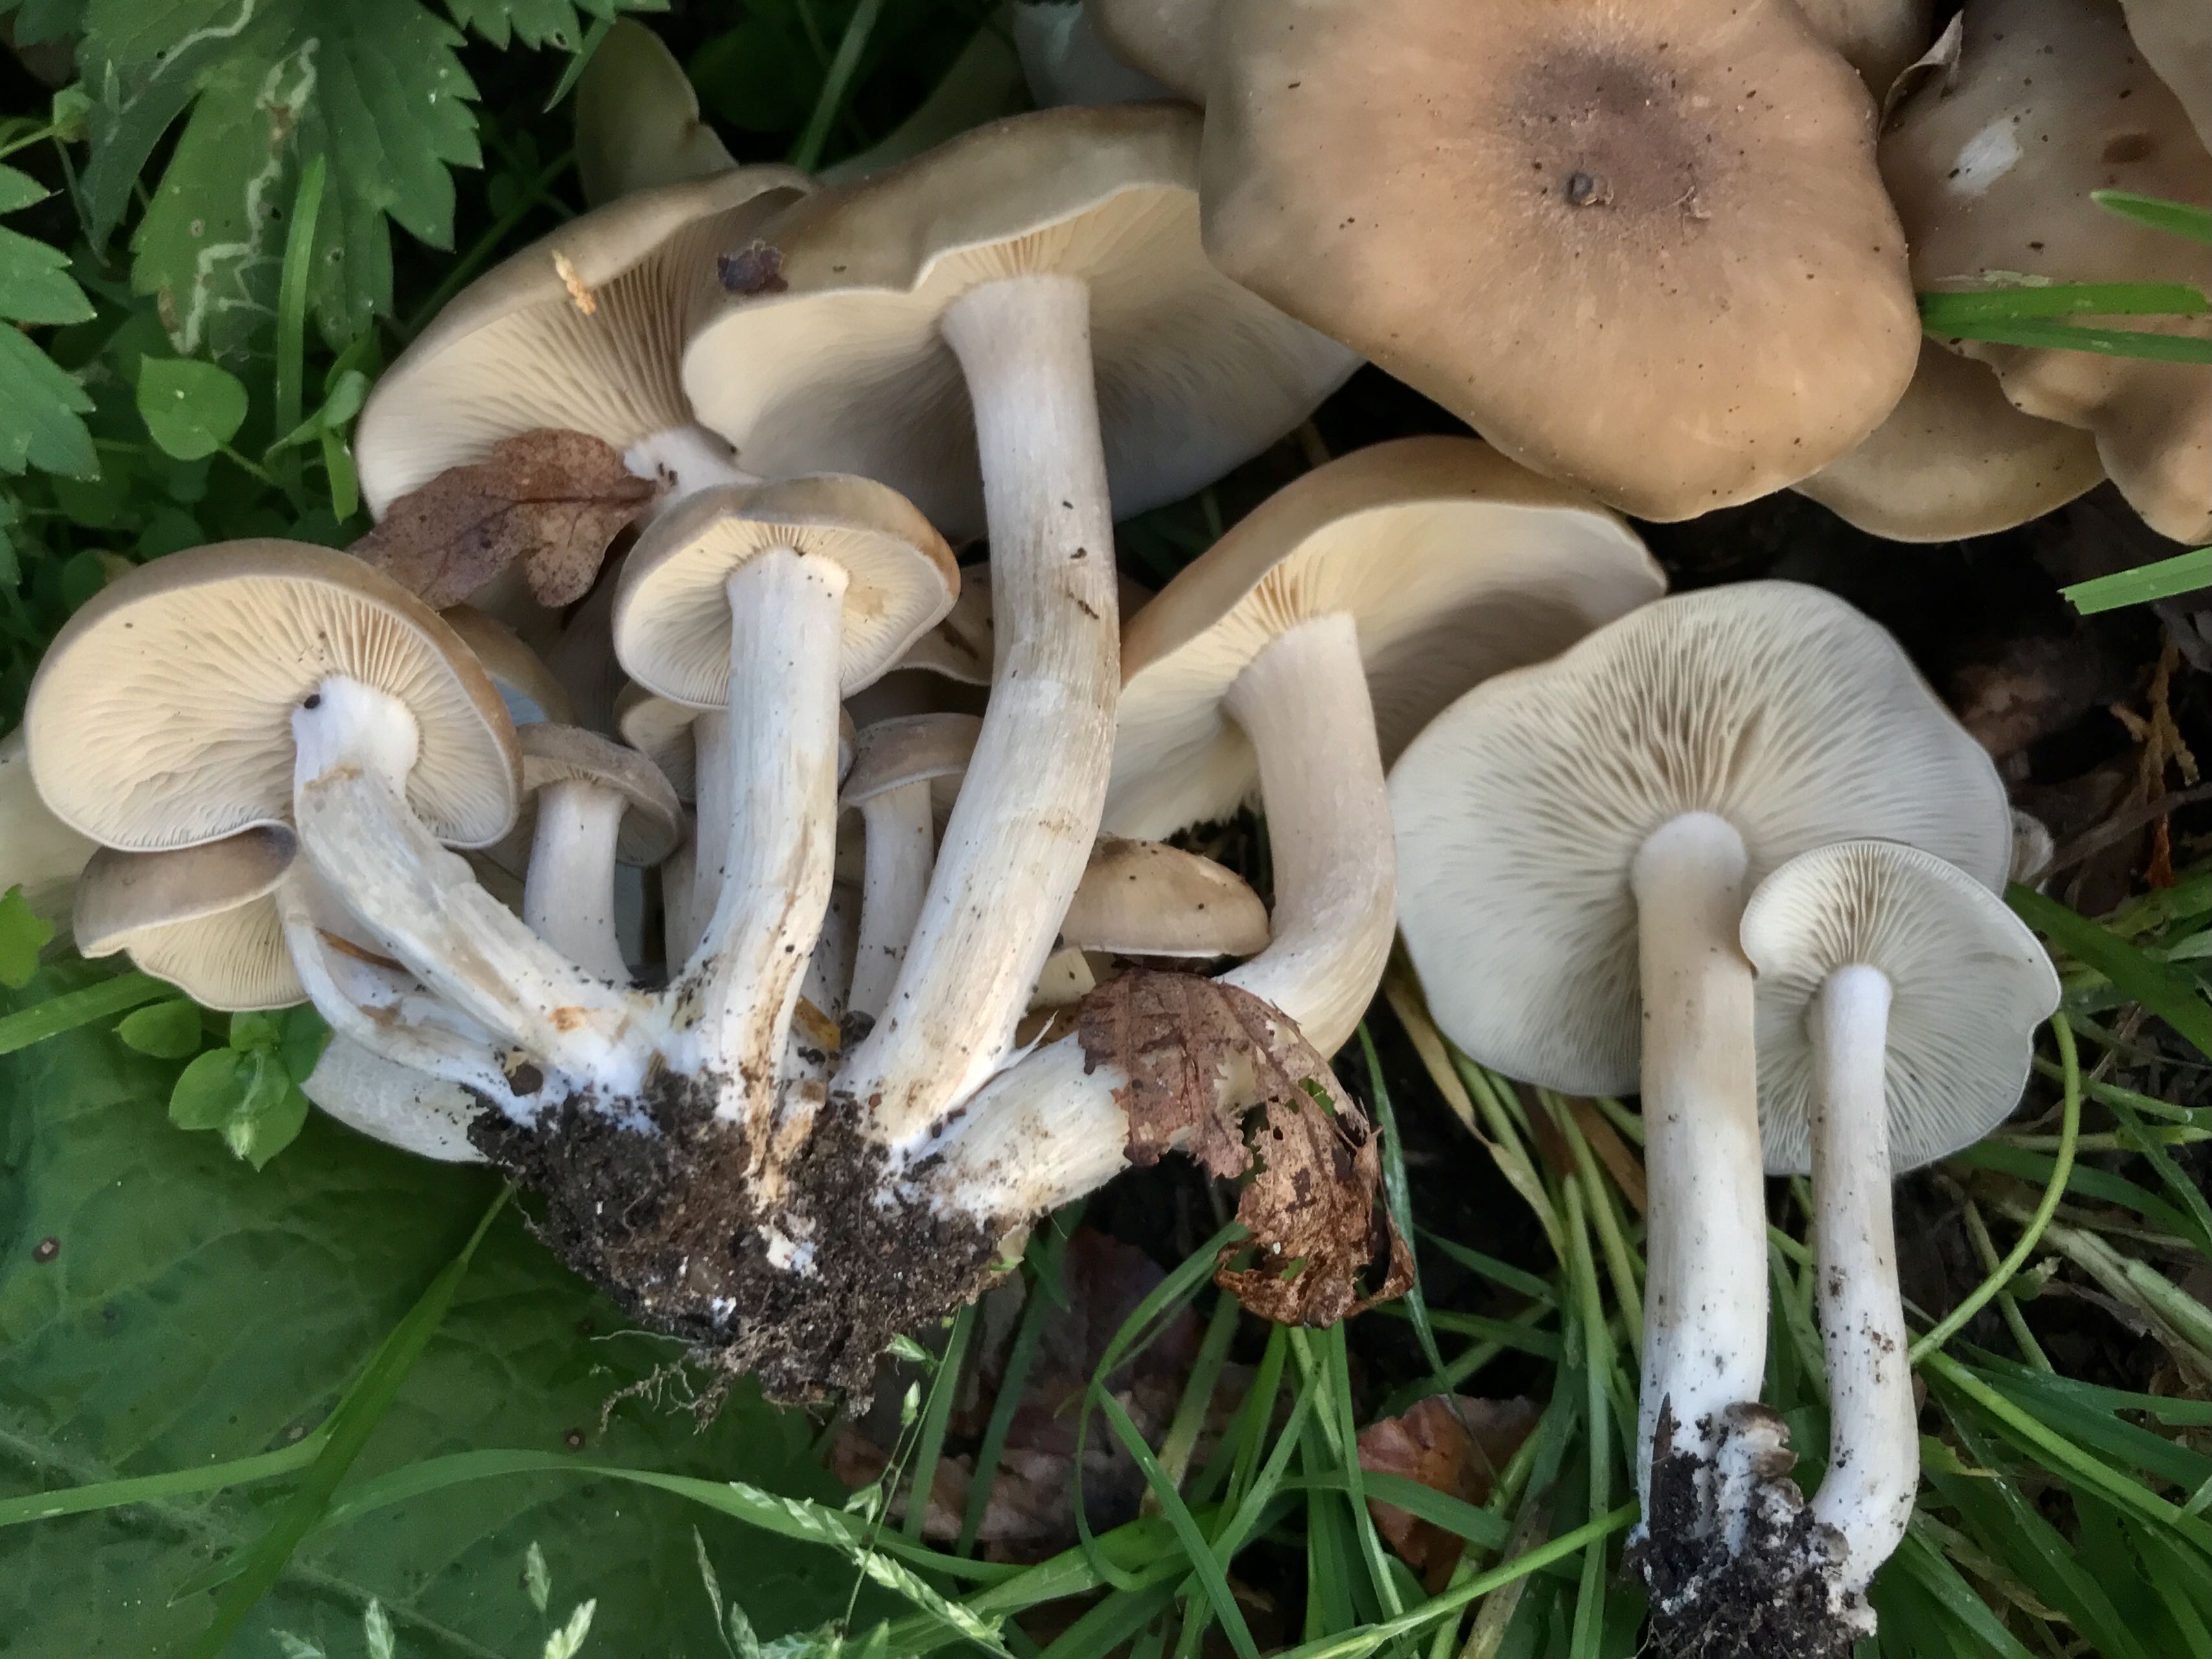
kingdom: Fungi
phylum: Basidiomycota
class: Agaricomycetes
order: Agaricales
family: Lyophyllaceae
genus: Lyophyllum
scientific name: Lyophyllum decastes
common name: røggrå gråblad
